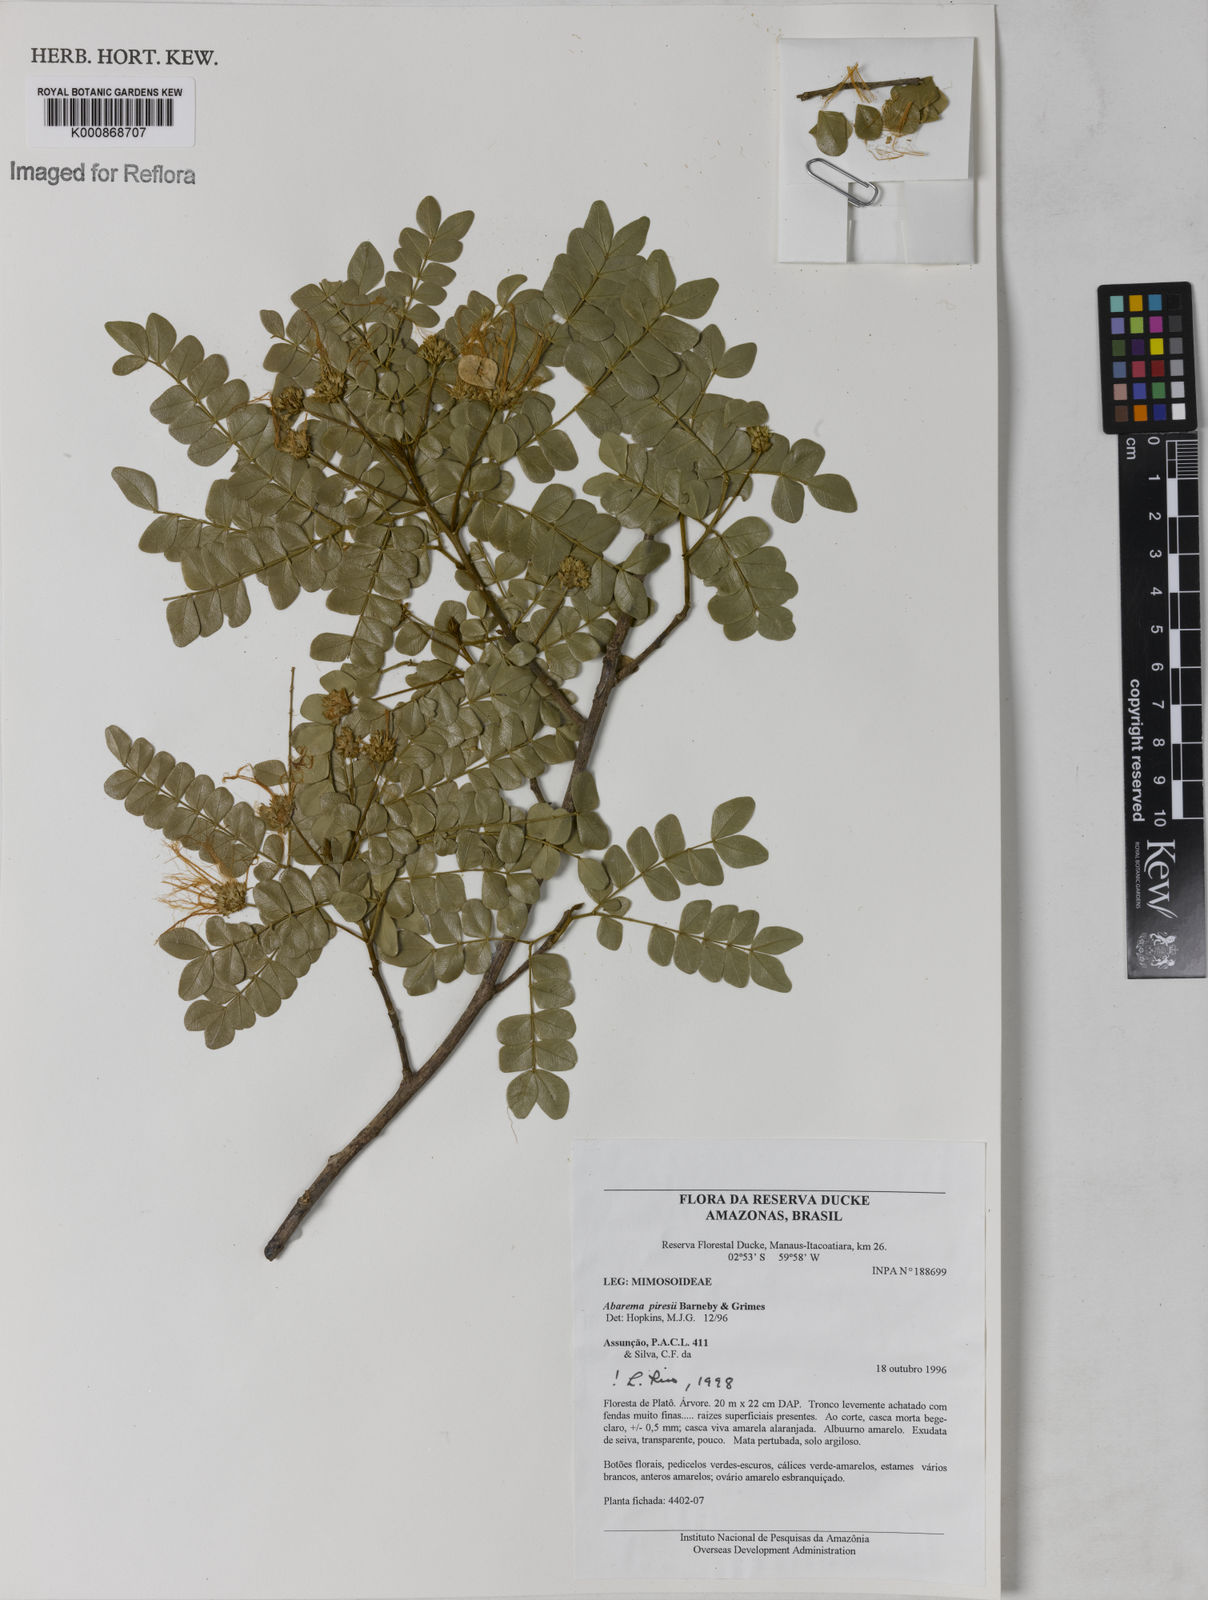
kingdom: Plantae
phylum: Tracheophyta
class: Magnoliopsida
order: Fabales
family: Fabaceae
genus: Jupunba
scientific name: Jupunba piresii
